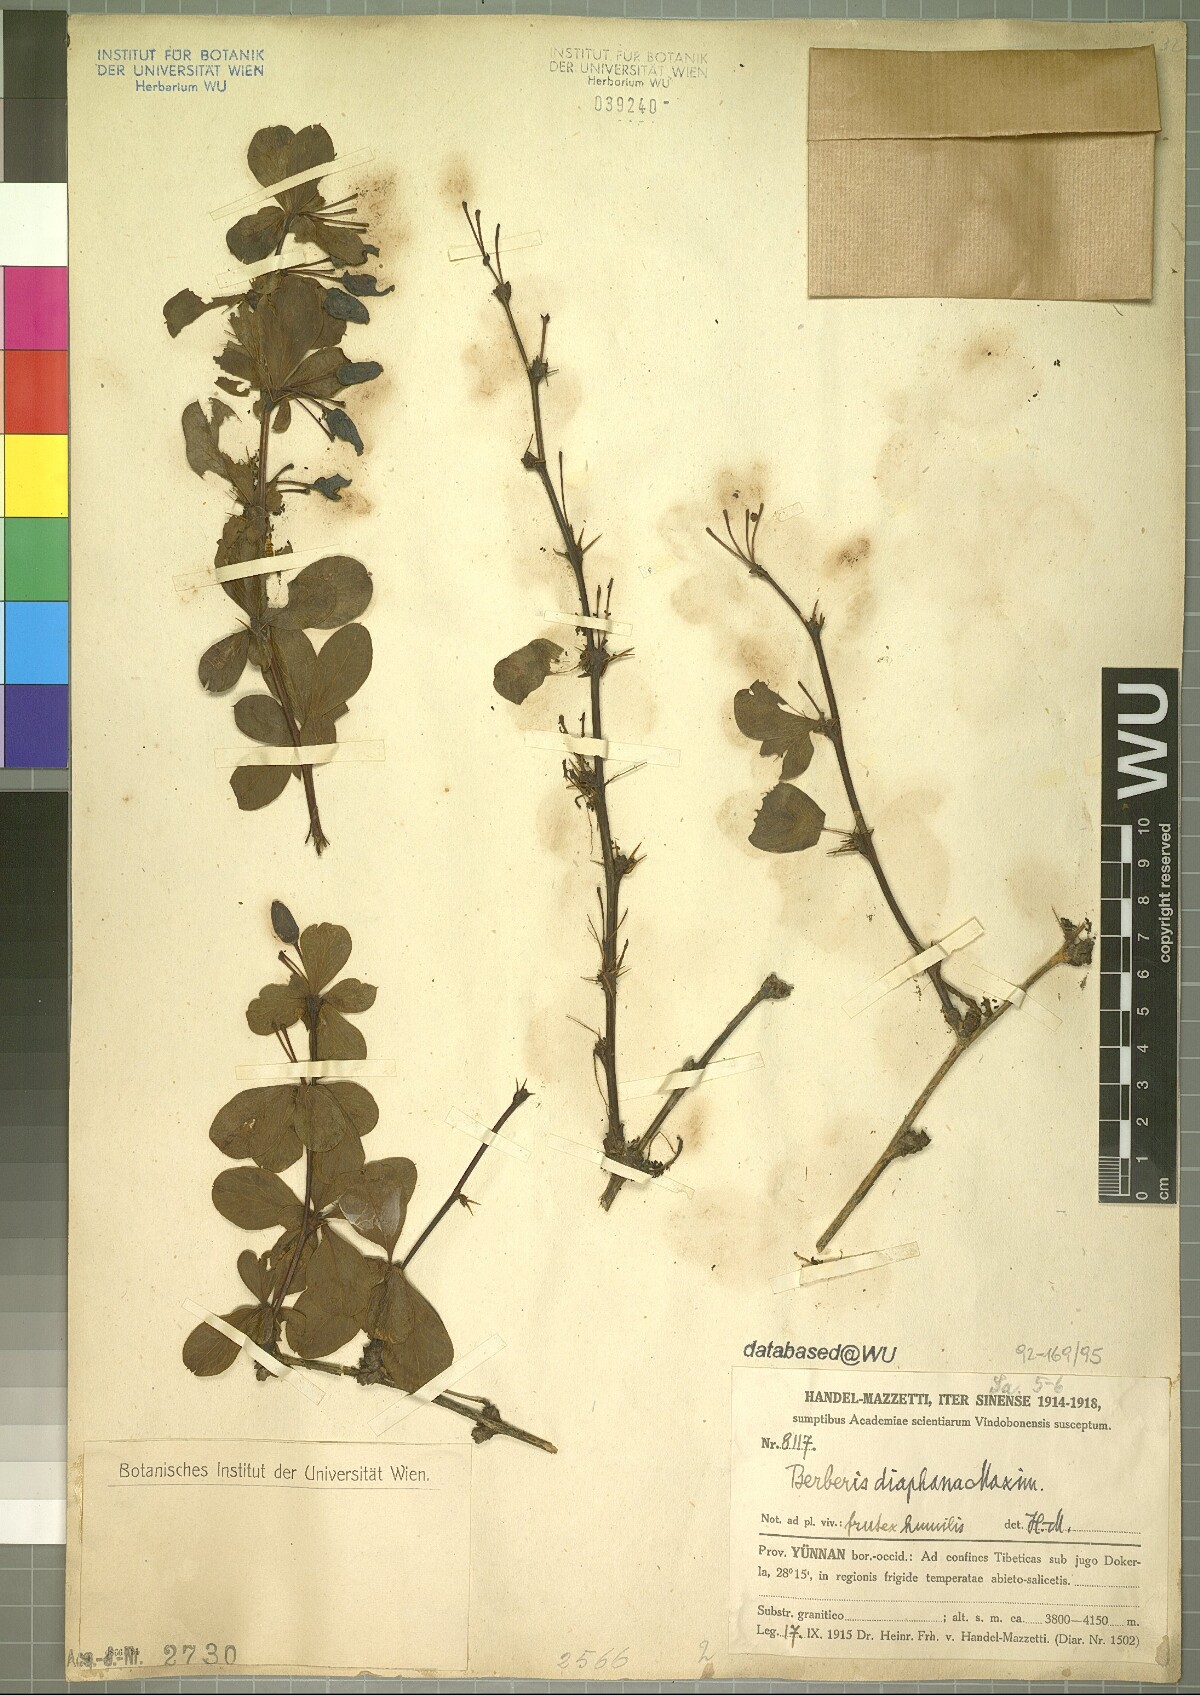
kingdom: Plantae
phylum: Tracheophyta
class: Magnoliopsida
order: Ranunculales
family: Berberidaceae
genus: Berberis
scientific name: Berberis diaphana
